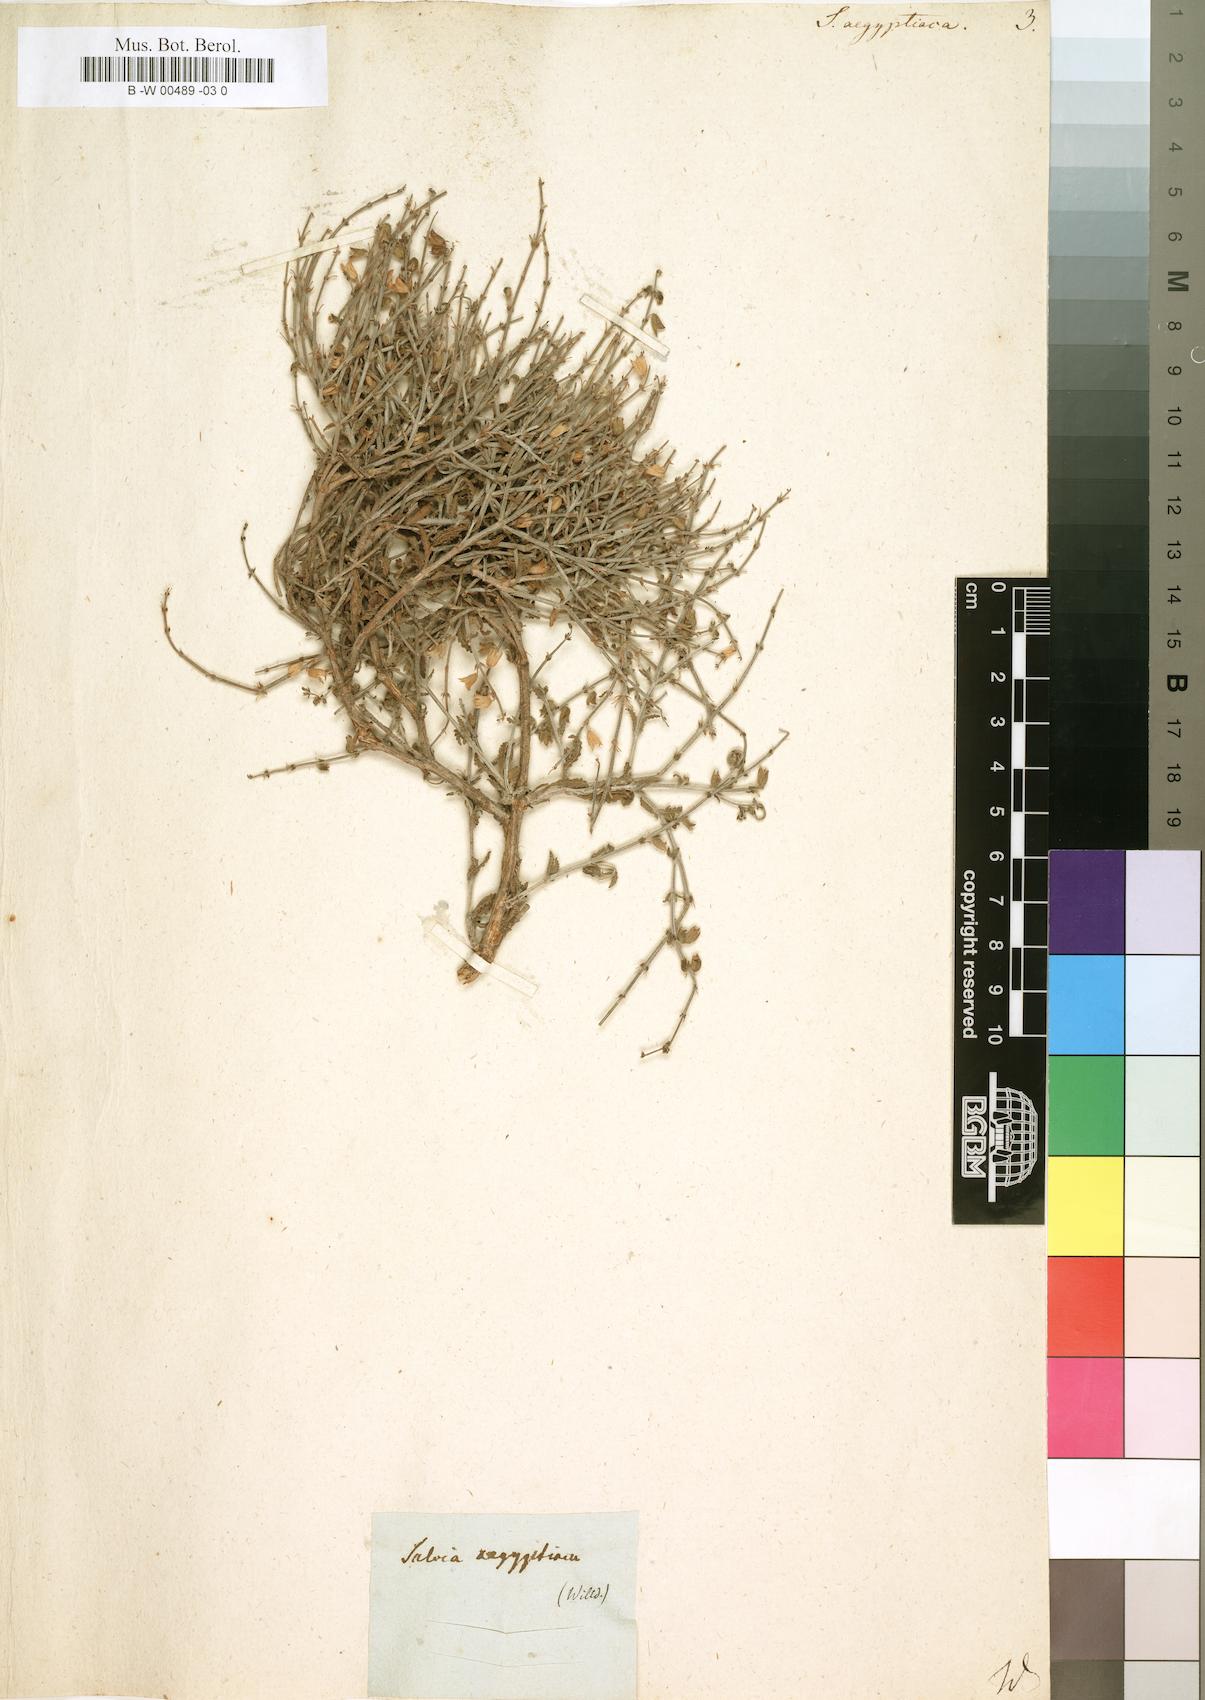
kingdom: Plantae
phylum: Tracheophyta
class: Magnoliopsida
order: Lamiales
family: Lamiaceae
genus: Salvia
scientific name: Salvia aegyptiaca
